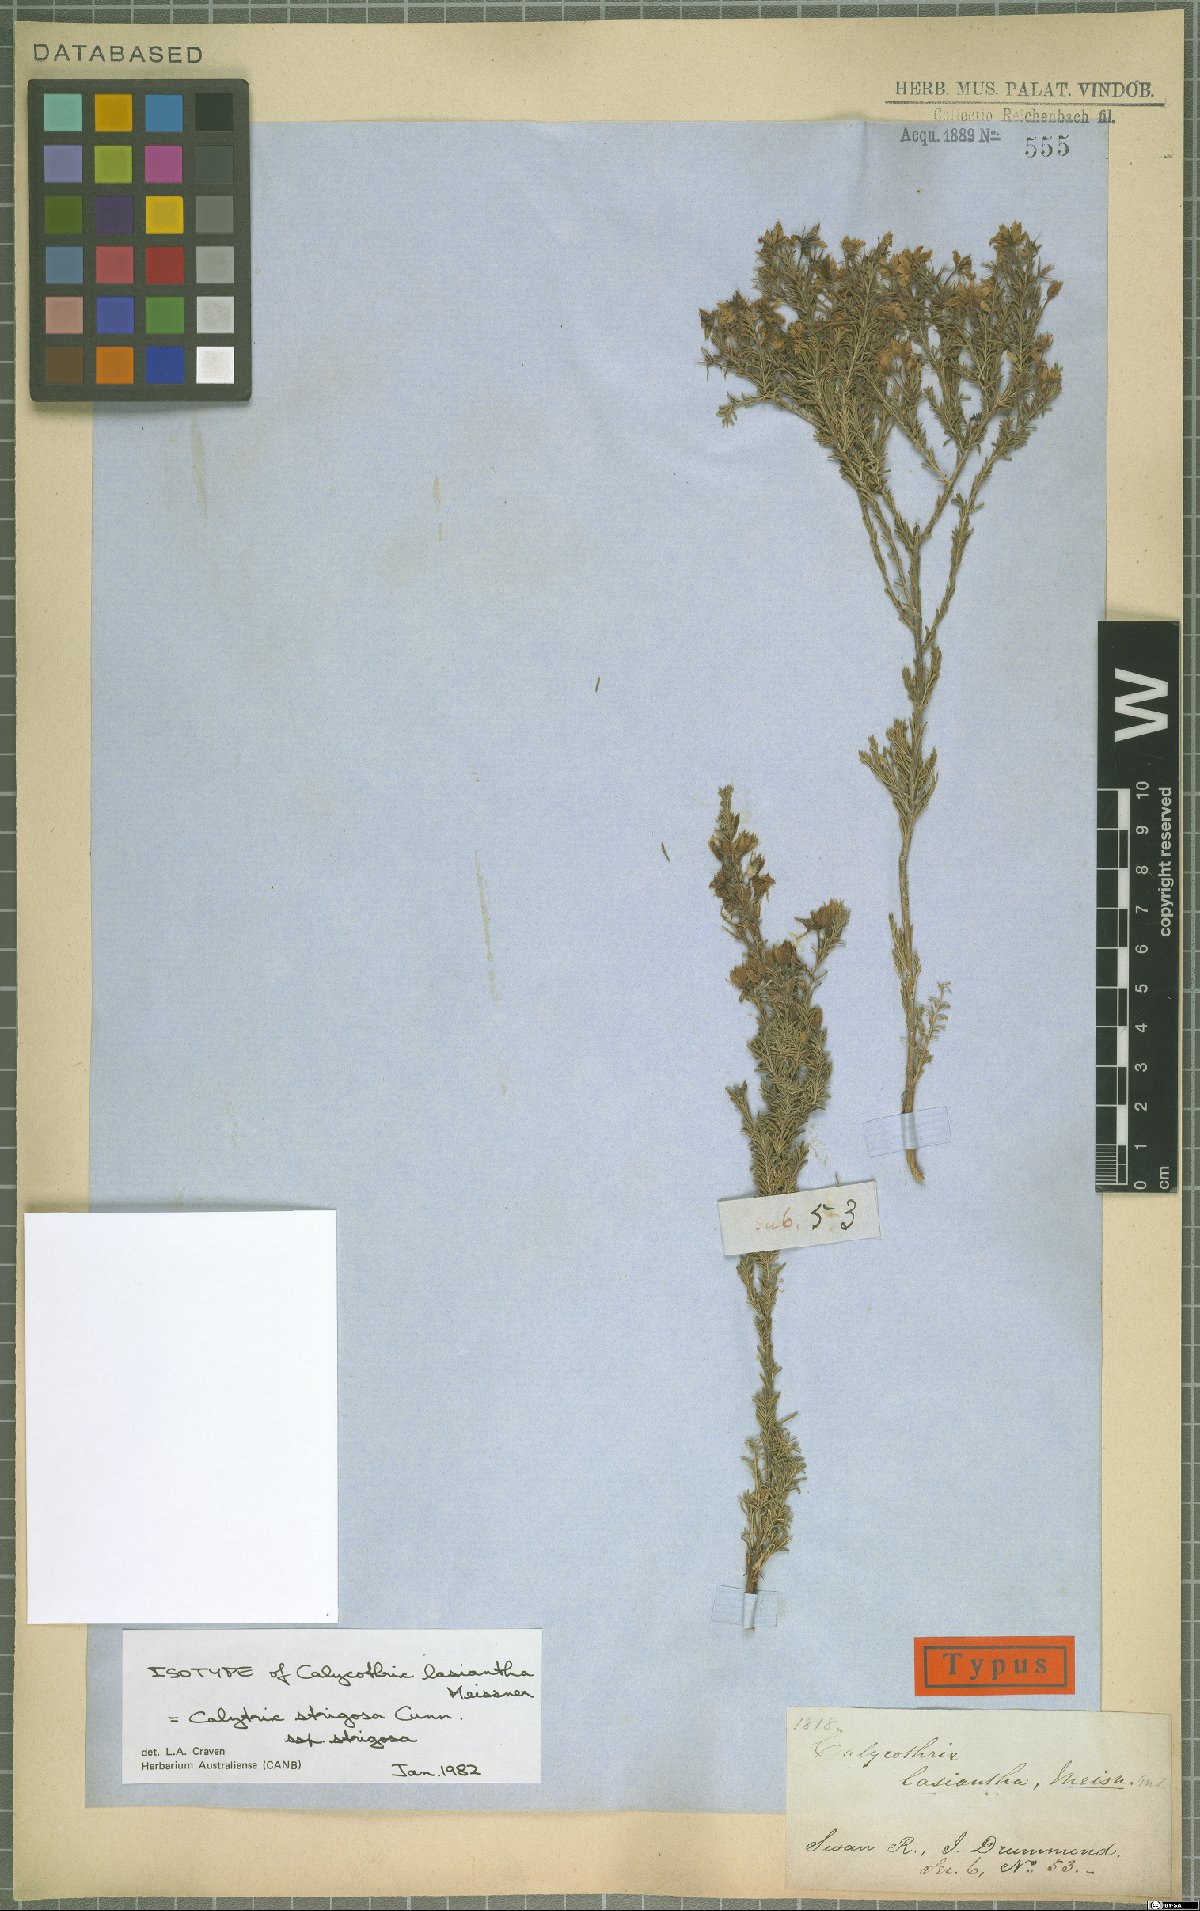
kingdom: Plantae
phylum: Tracheophyta
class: Magnoliopsida
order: Myrtales
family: Myrtaceae
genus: Calytrix
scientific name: Calytrix strigosa
